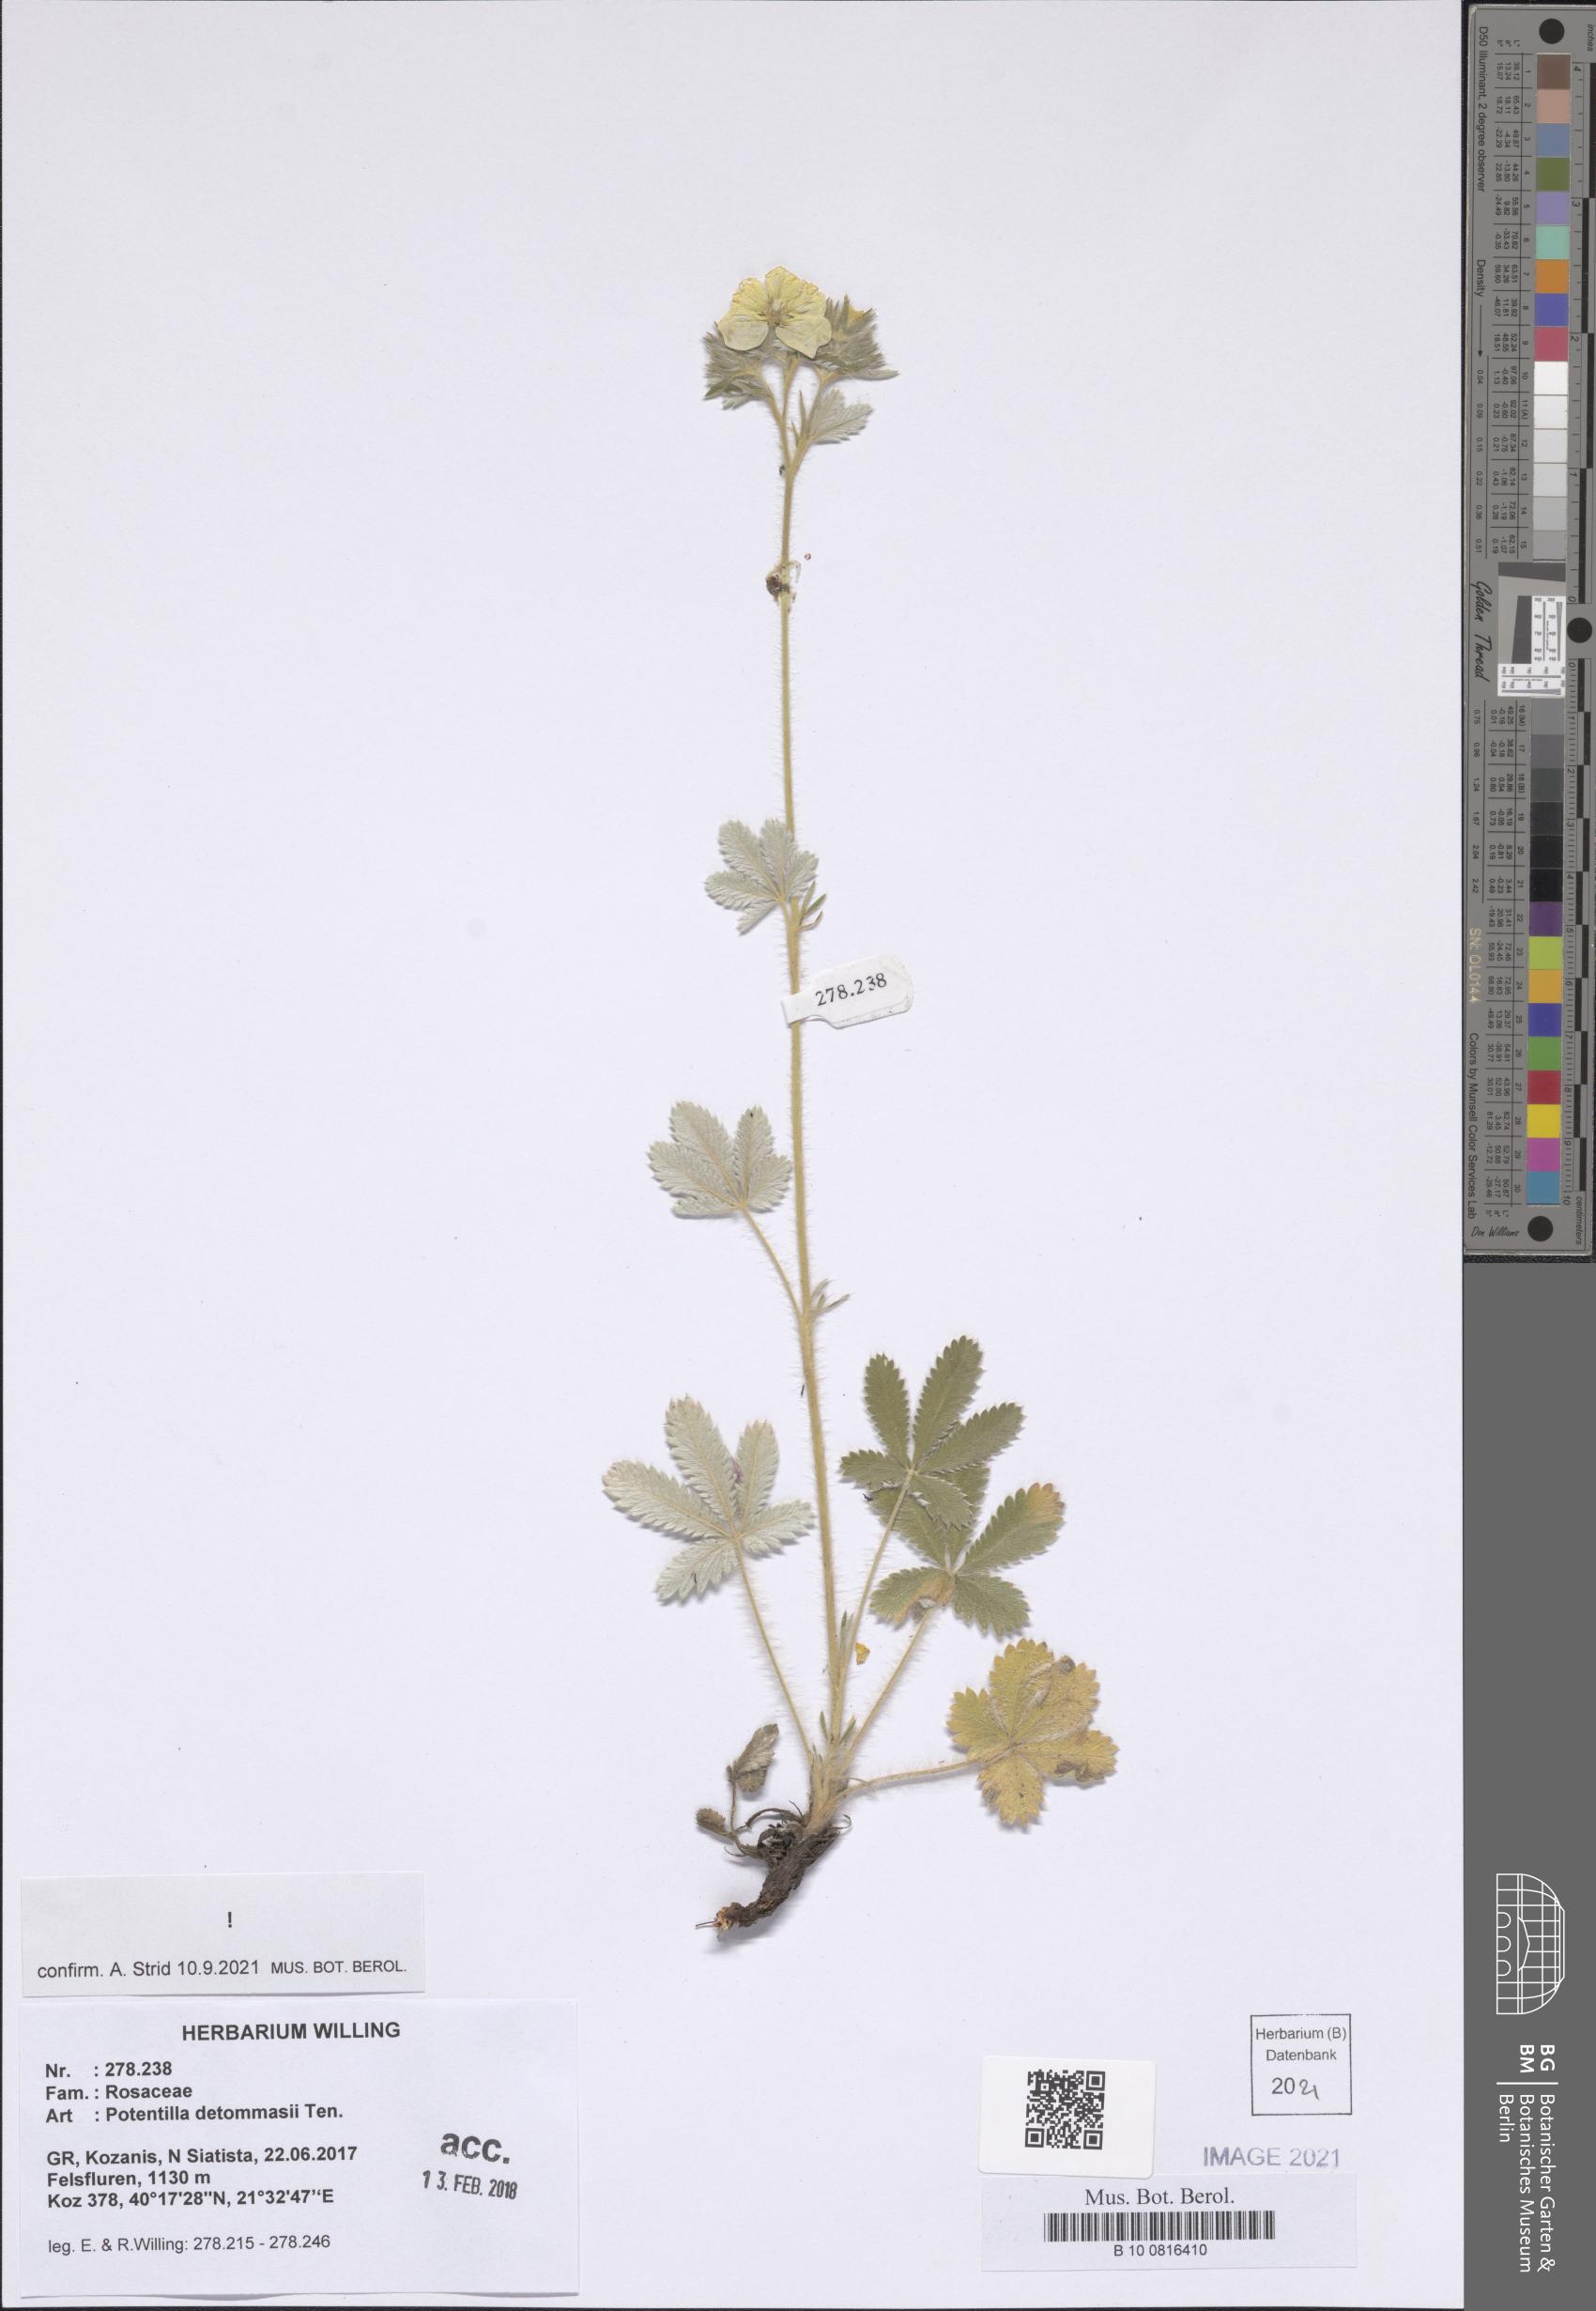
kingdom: Plantae
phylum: Tracheophyta
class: Magnoliopsida
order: Rosales
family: Rosaceae
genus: Potentilla
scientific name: Potentilla detommasii
